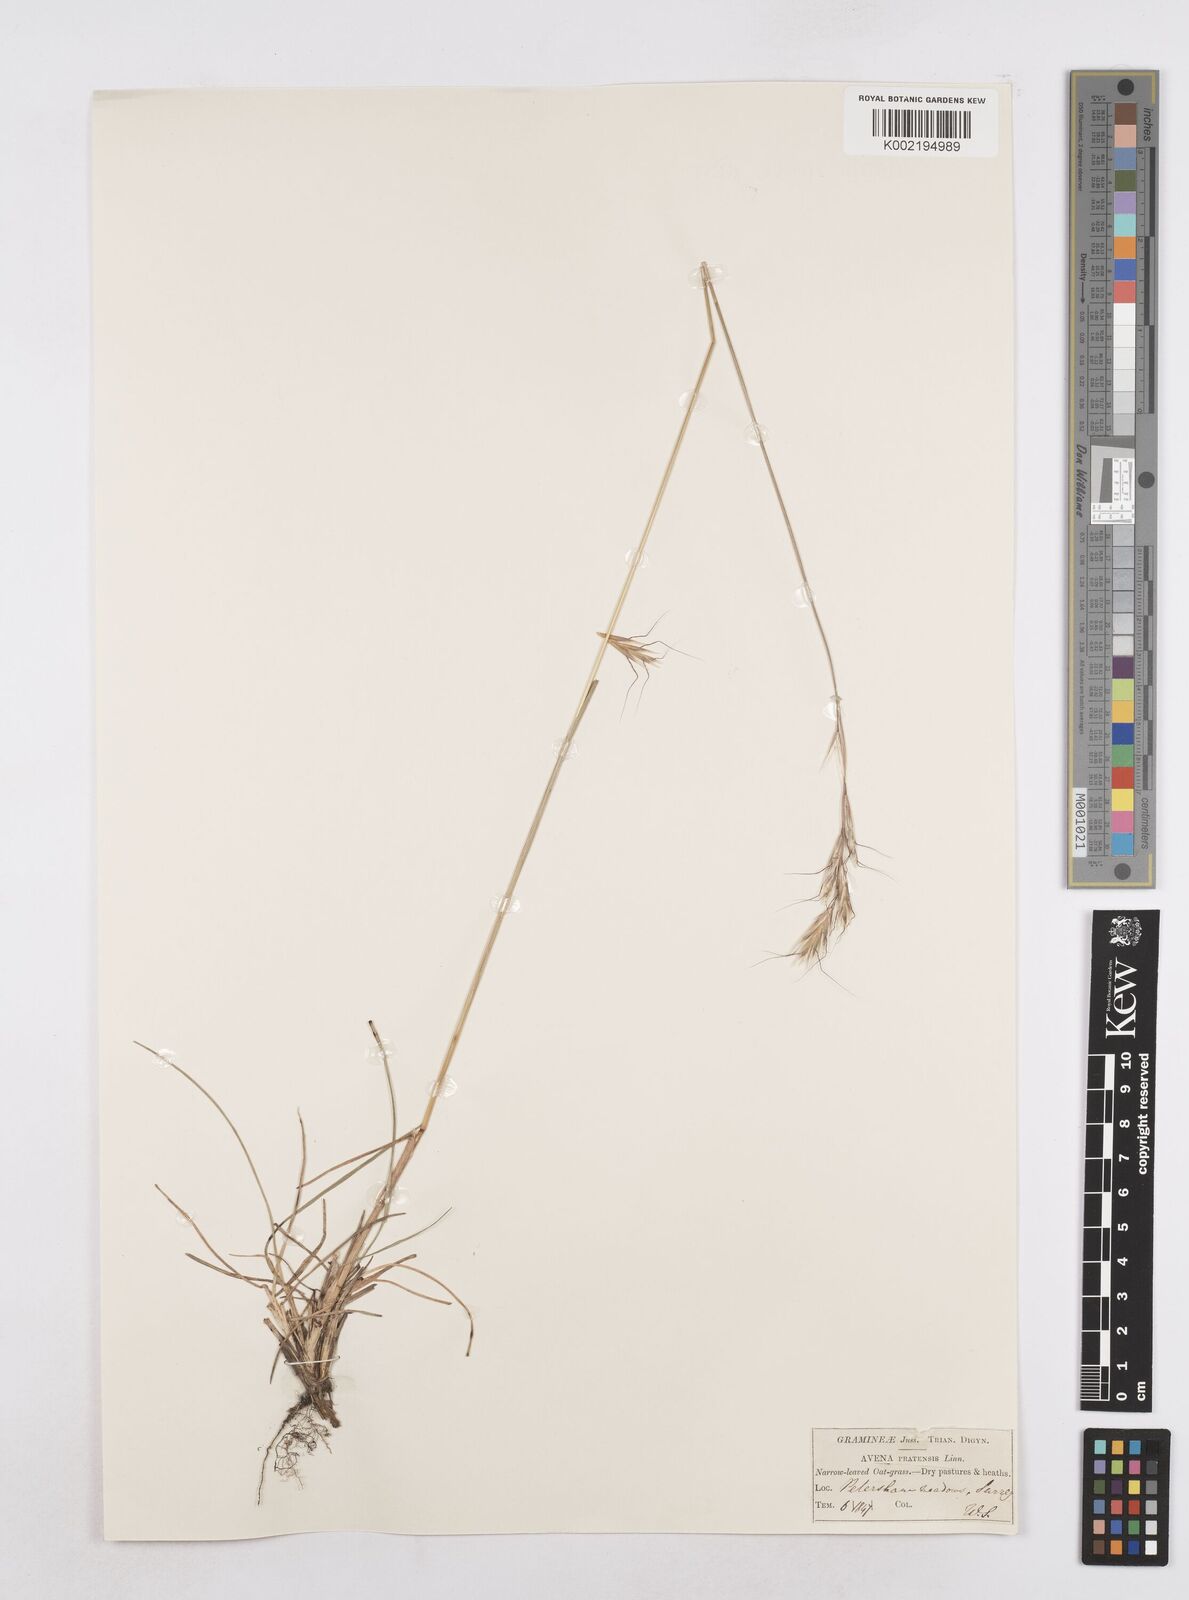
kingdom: Plantae
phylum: Tracheophyta
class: Liliopsida
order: Poales
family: Poaceae
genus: Helictochloa
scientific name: Helictochloa pratensis
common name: Meadow oat grass
